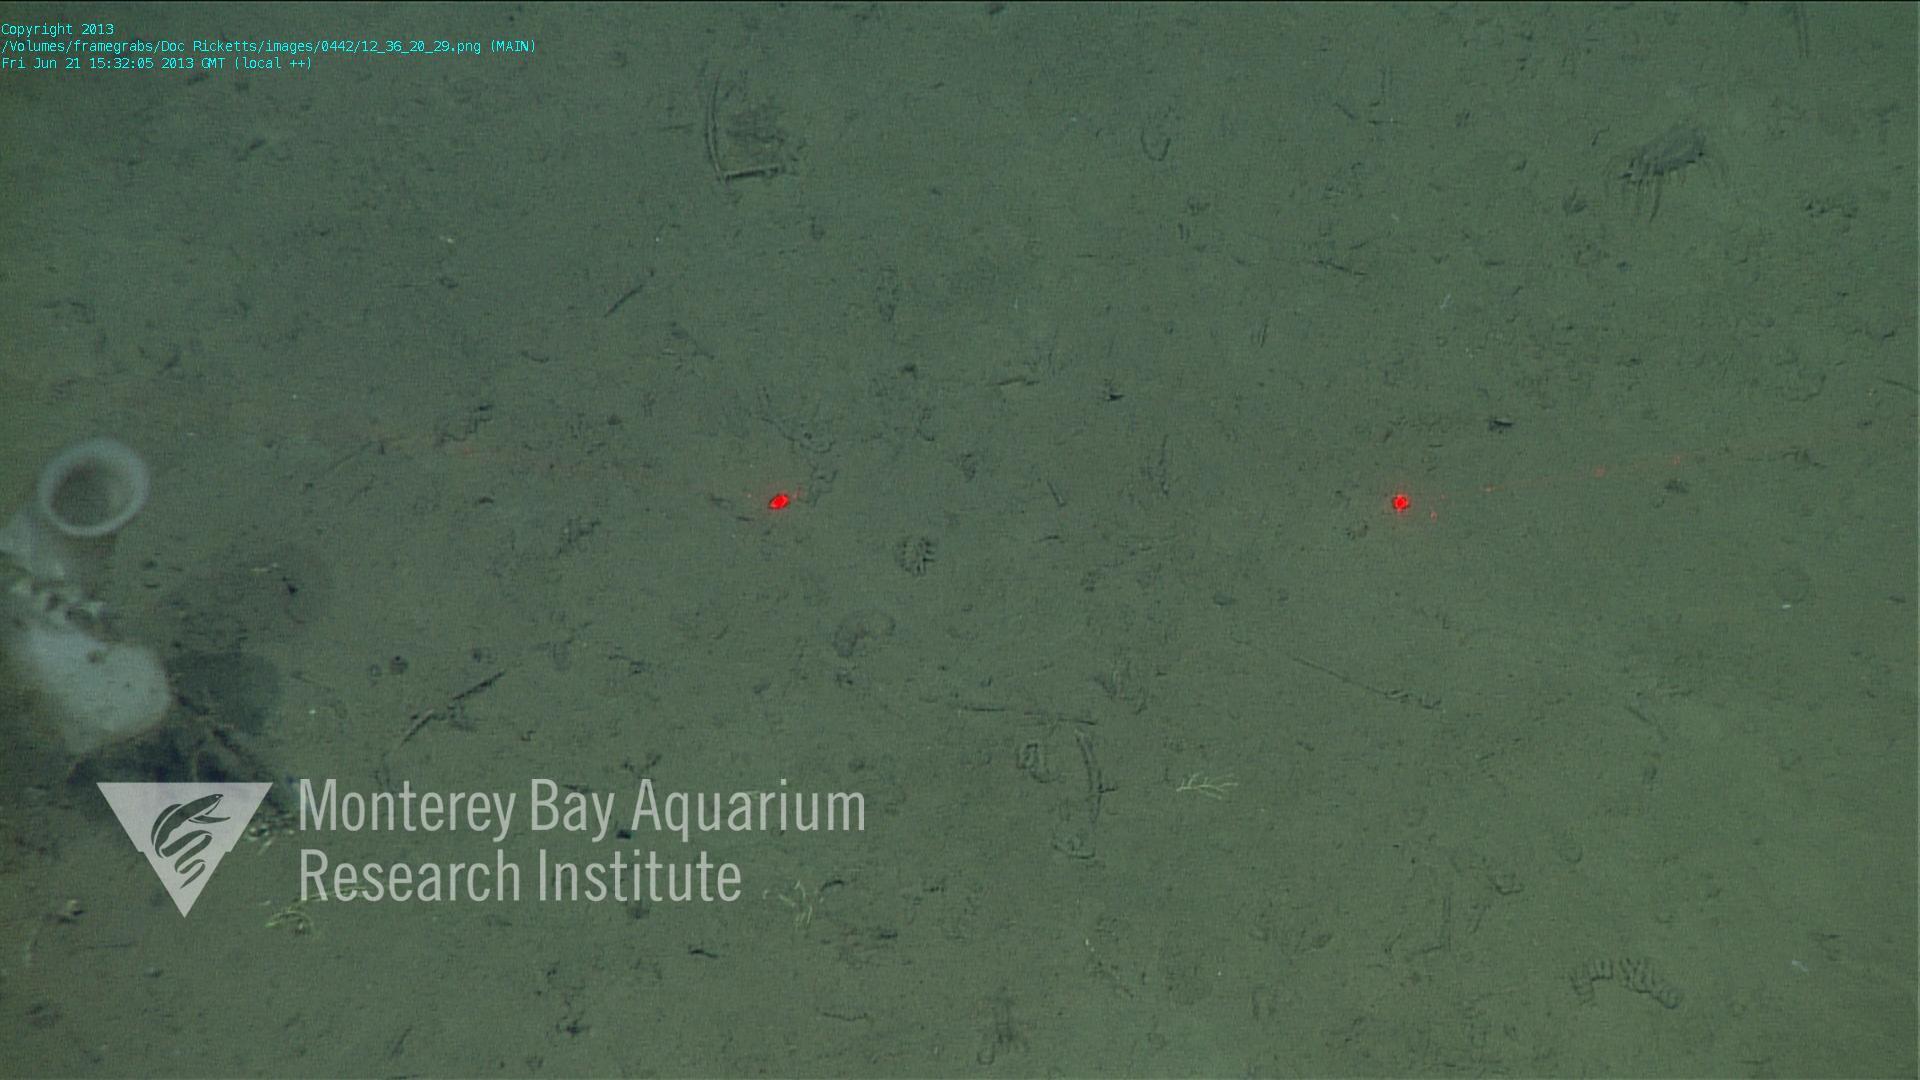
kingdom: Animalia
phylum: Porifera
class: Hexactinellida
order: Lyssacinosida
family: Rossellidae
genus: Bathydorus
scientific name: Bathydorus spinosus
